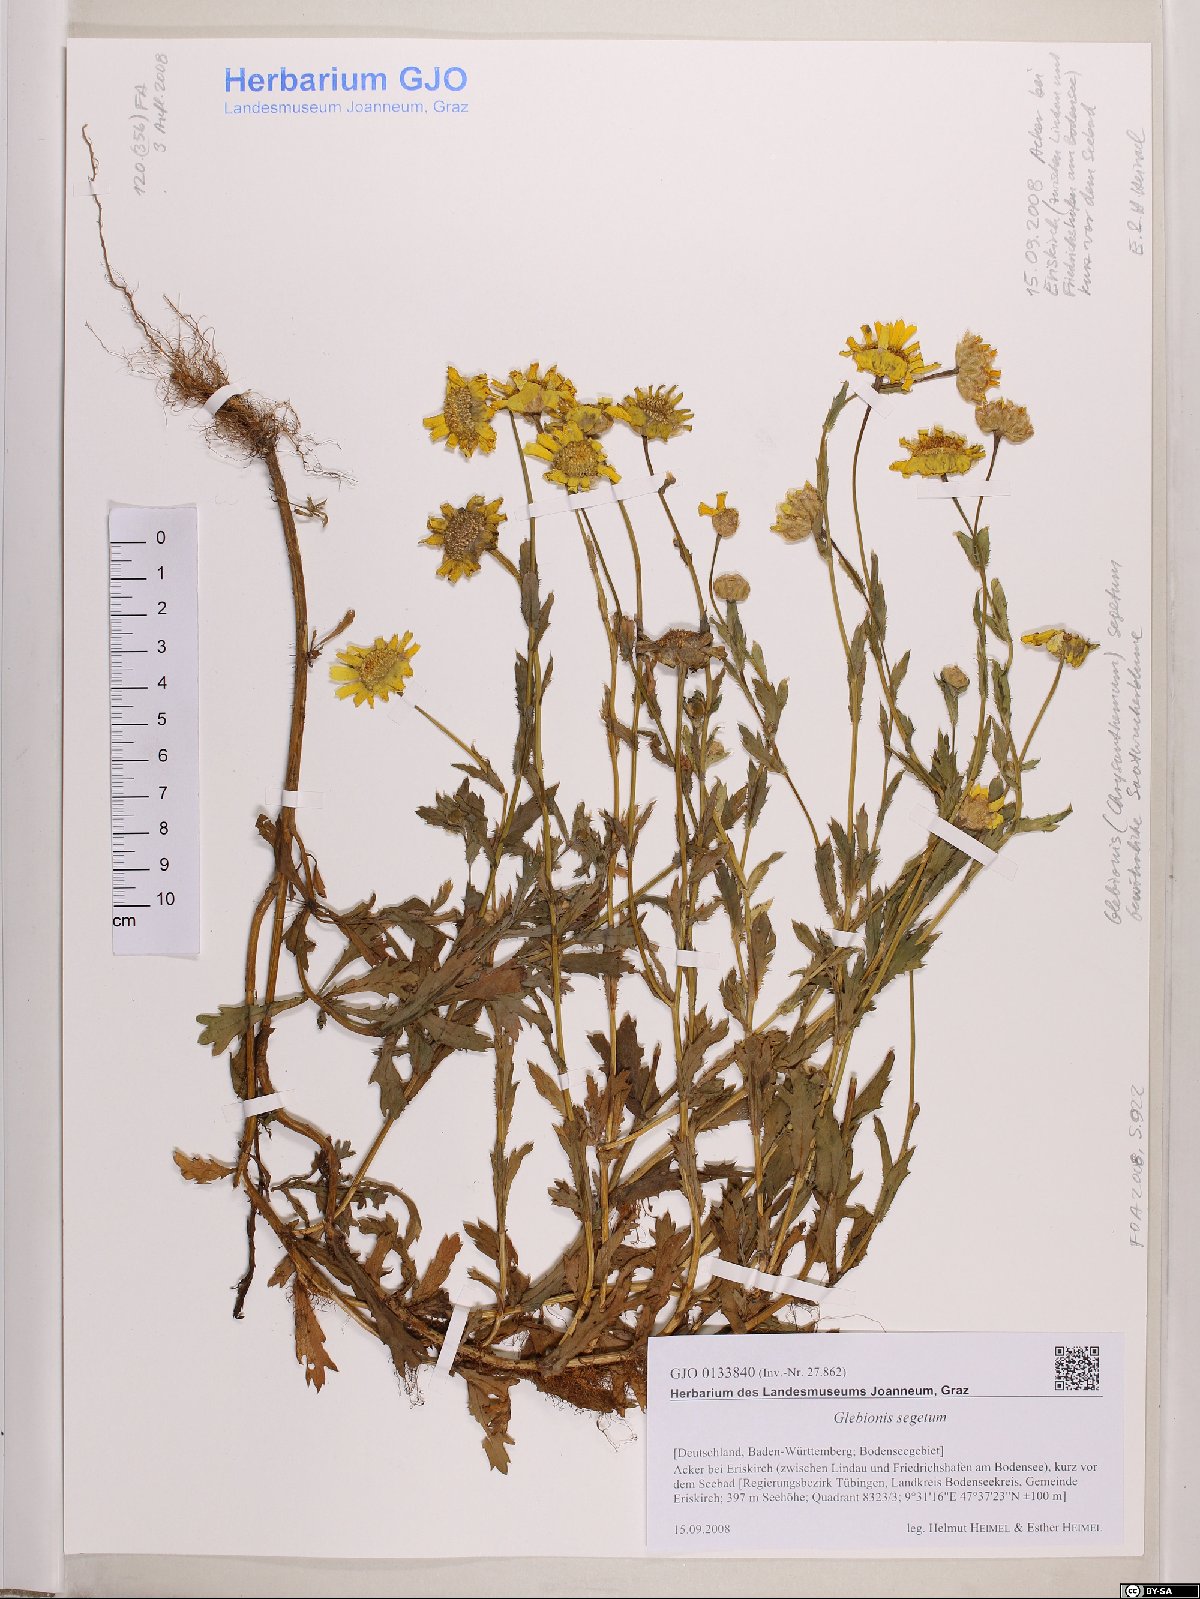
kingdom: Plantae
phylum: Tracheophyta
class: Magnoliopsida
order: Asterales
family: Asteraceae
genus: Glebionis
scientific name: Glebionis segetum
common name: Corndaisy
